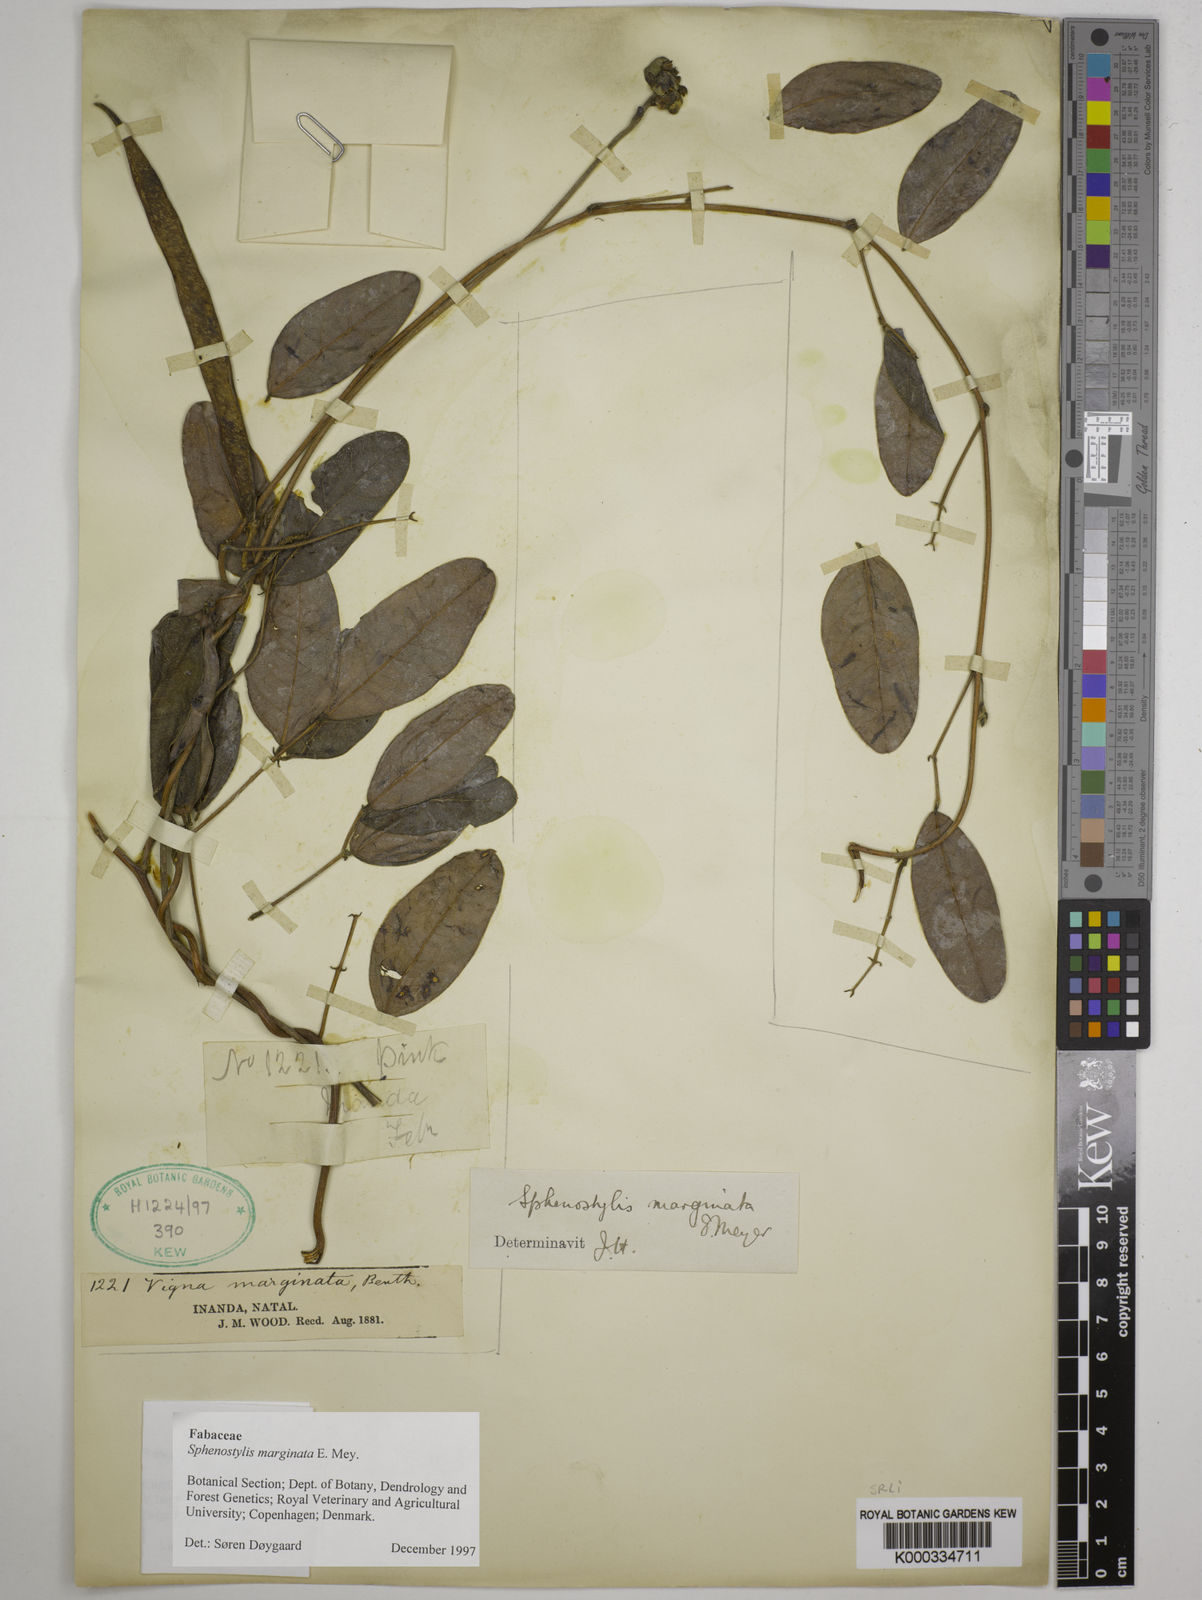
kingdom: Plantae
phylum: Tracheophyta
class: Magnoliopsida
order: Fabales
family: Fabaceae
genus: Sphenostylis
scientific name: Sphenostylis marginata
